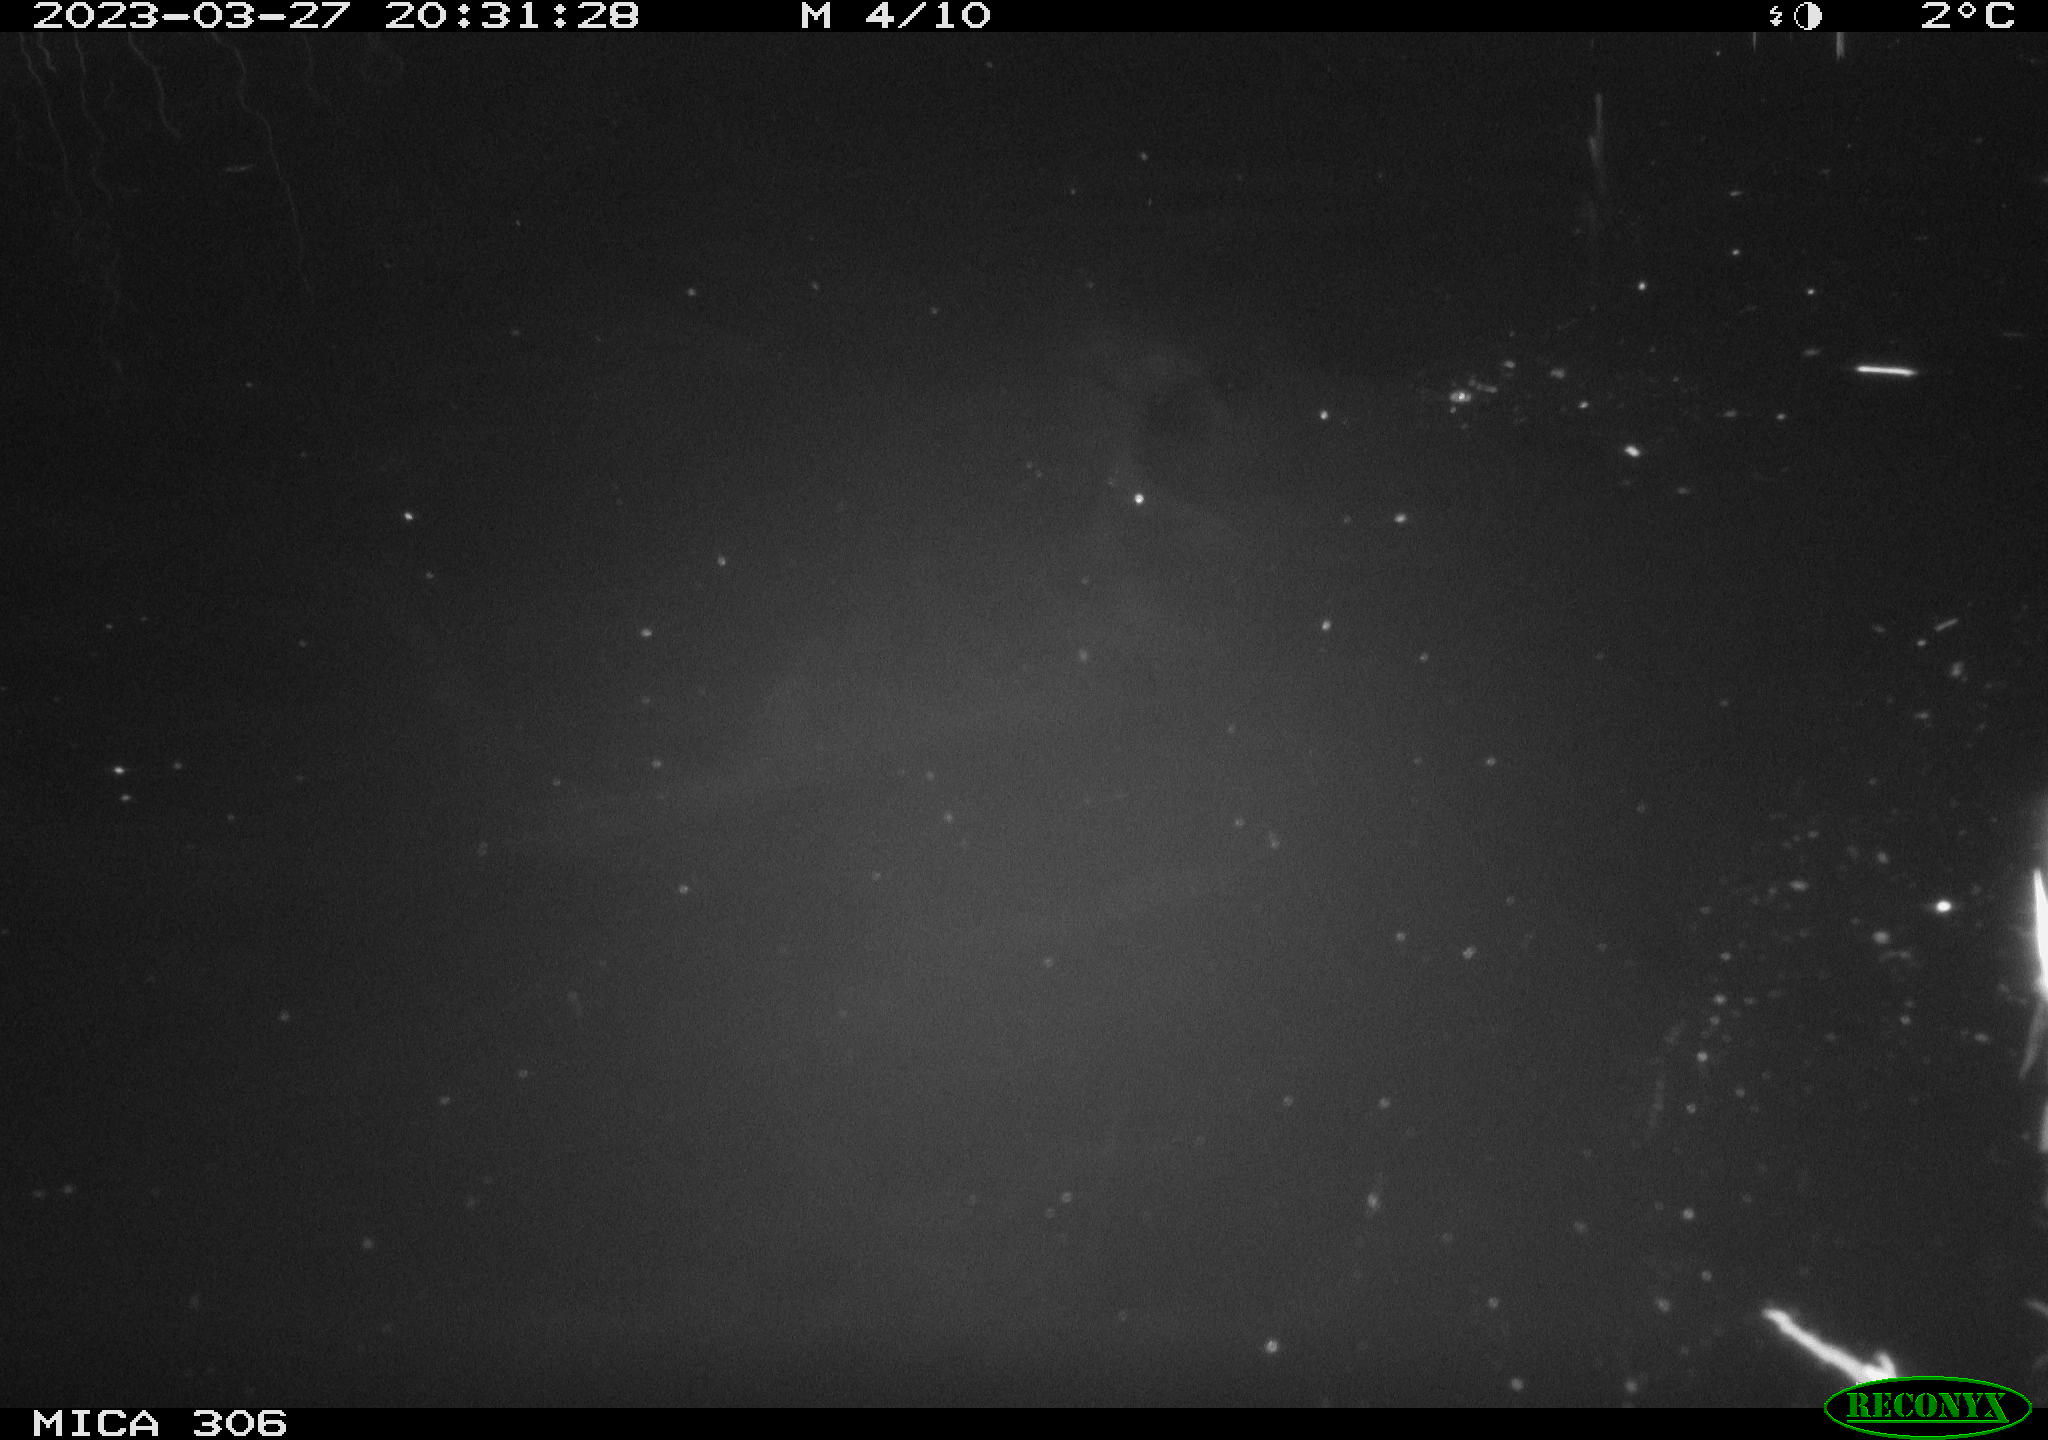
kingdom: Animalia
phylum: Chordata
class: Aves
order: Anseriformes
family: Anatidae
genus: Anas
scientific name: Anas
